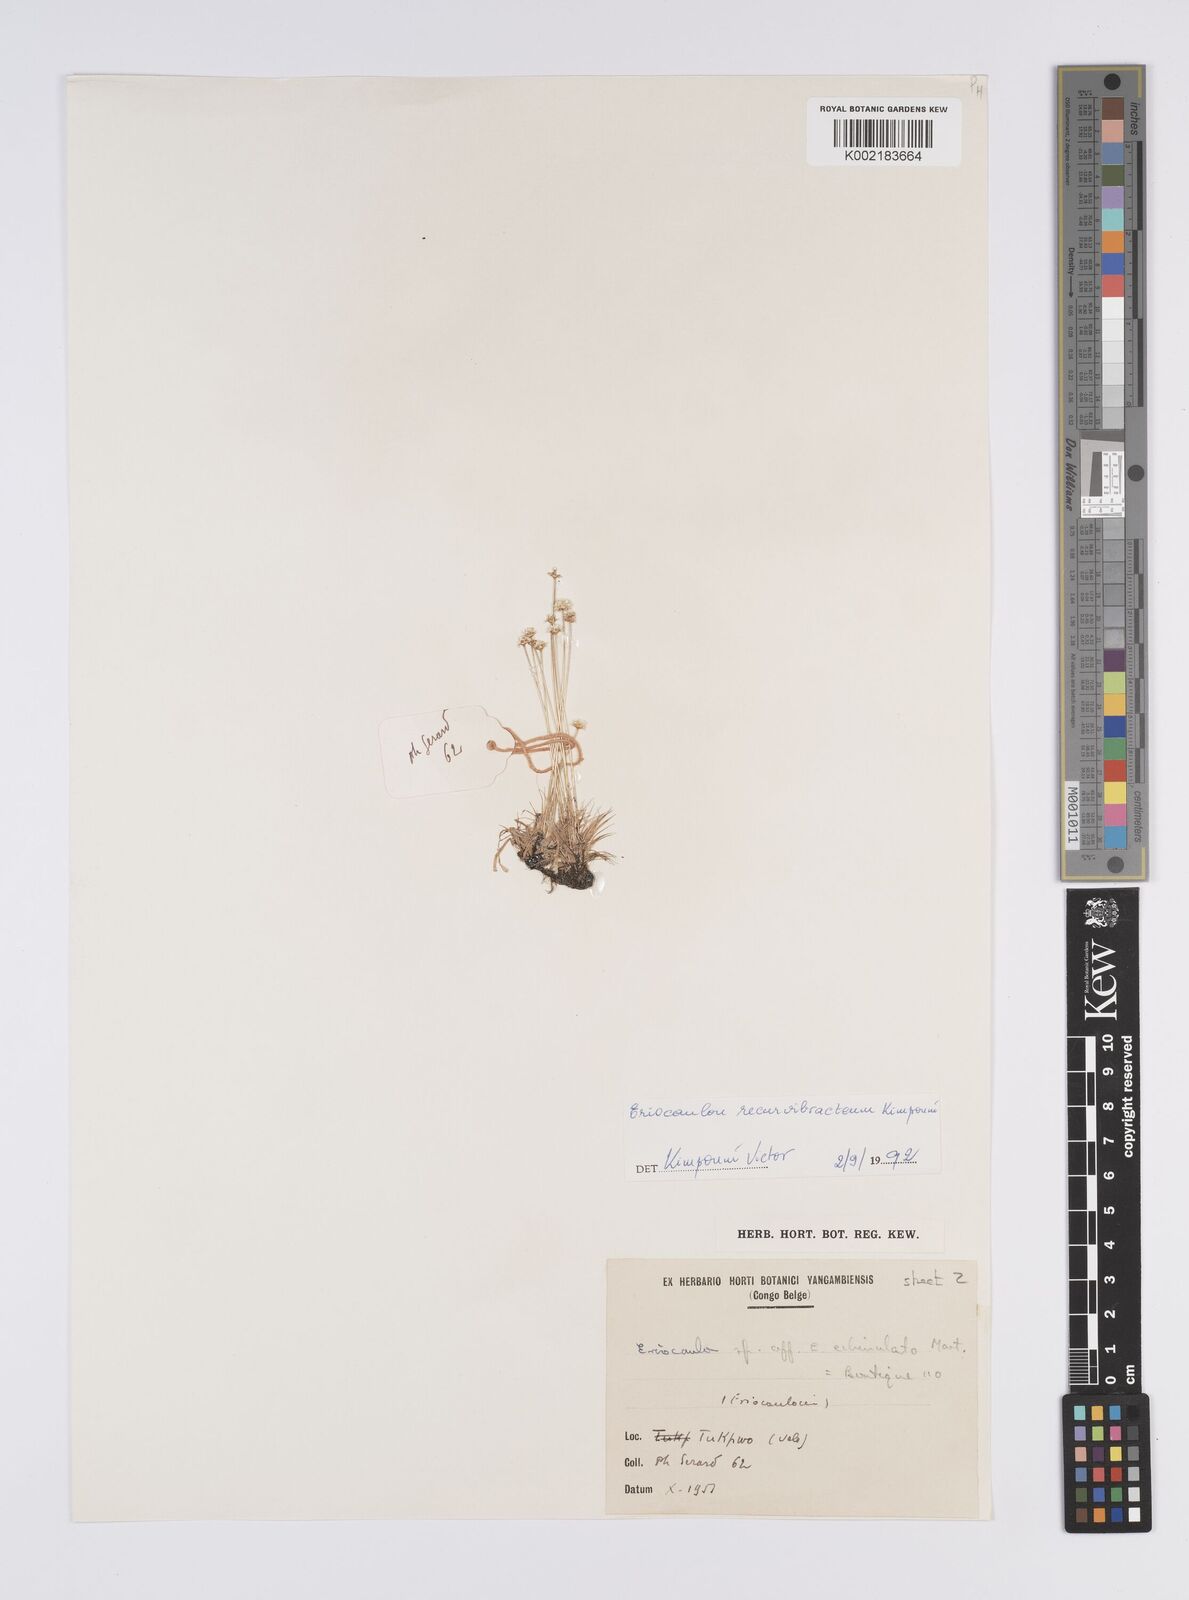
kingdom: Plantae
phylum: Tracheophyta
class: Liliopsida
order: Poales
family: Eriocaulaceae
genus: Eriocaulon
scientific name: Eriocaulon recurvibracteum
